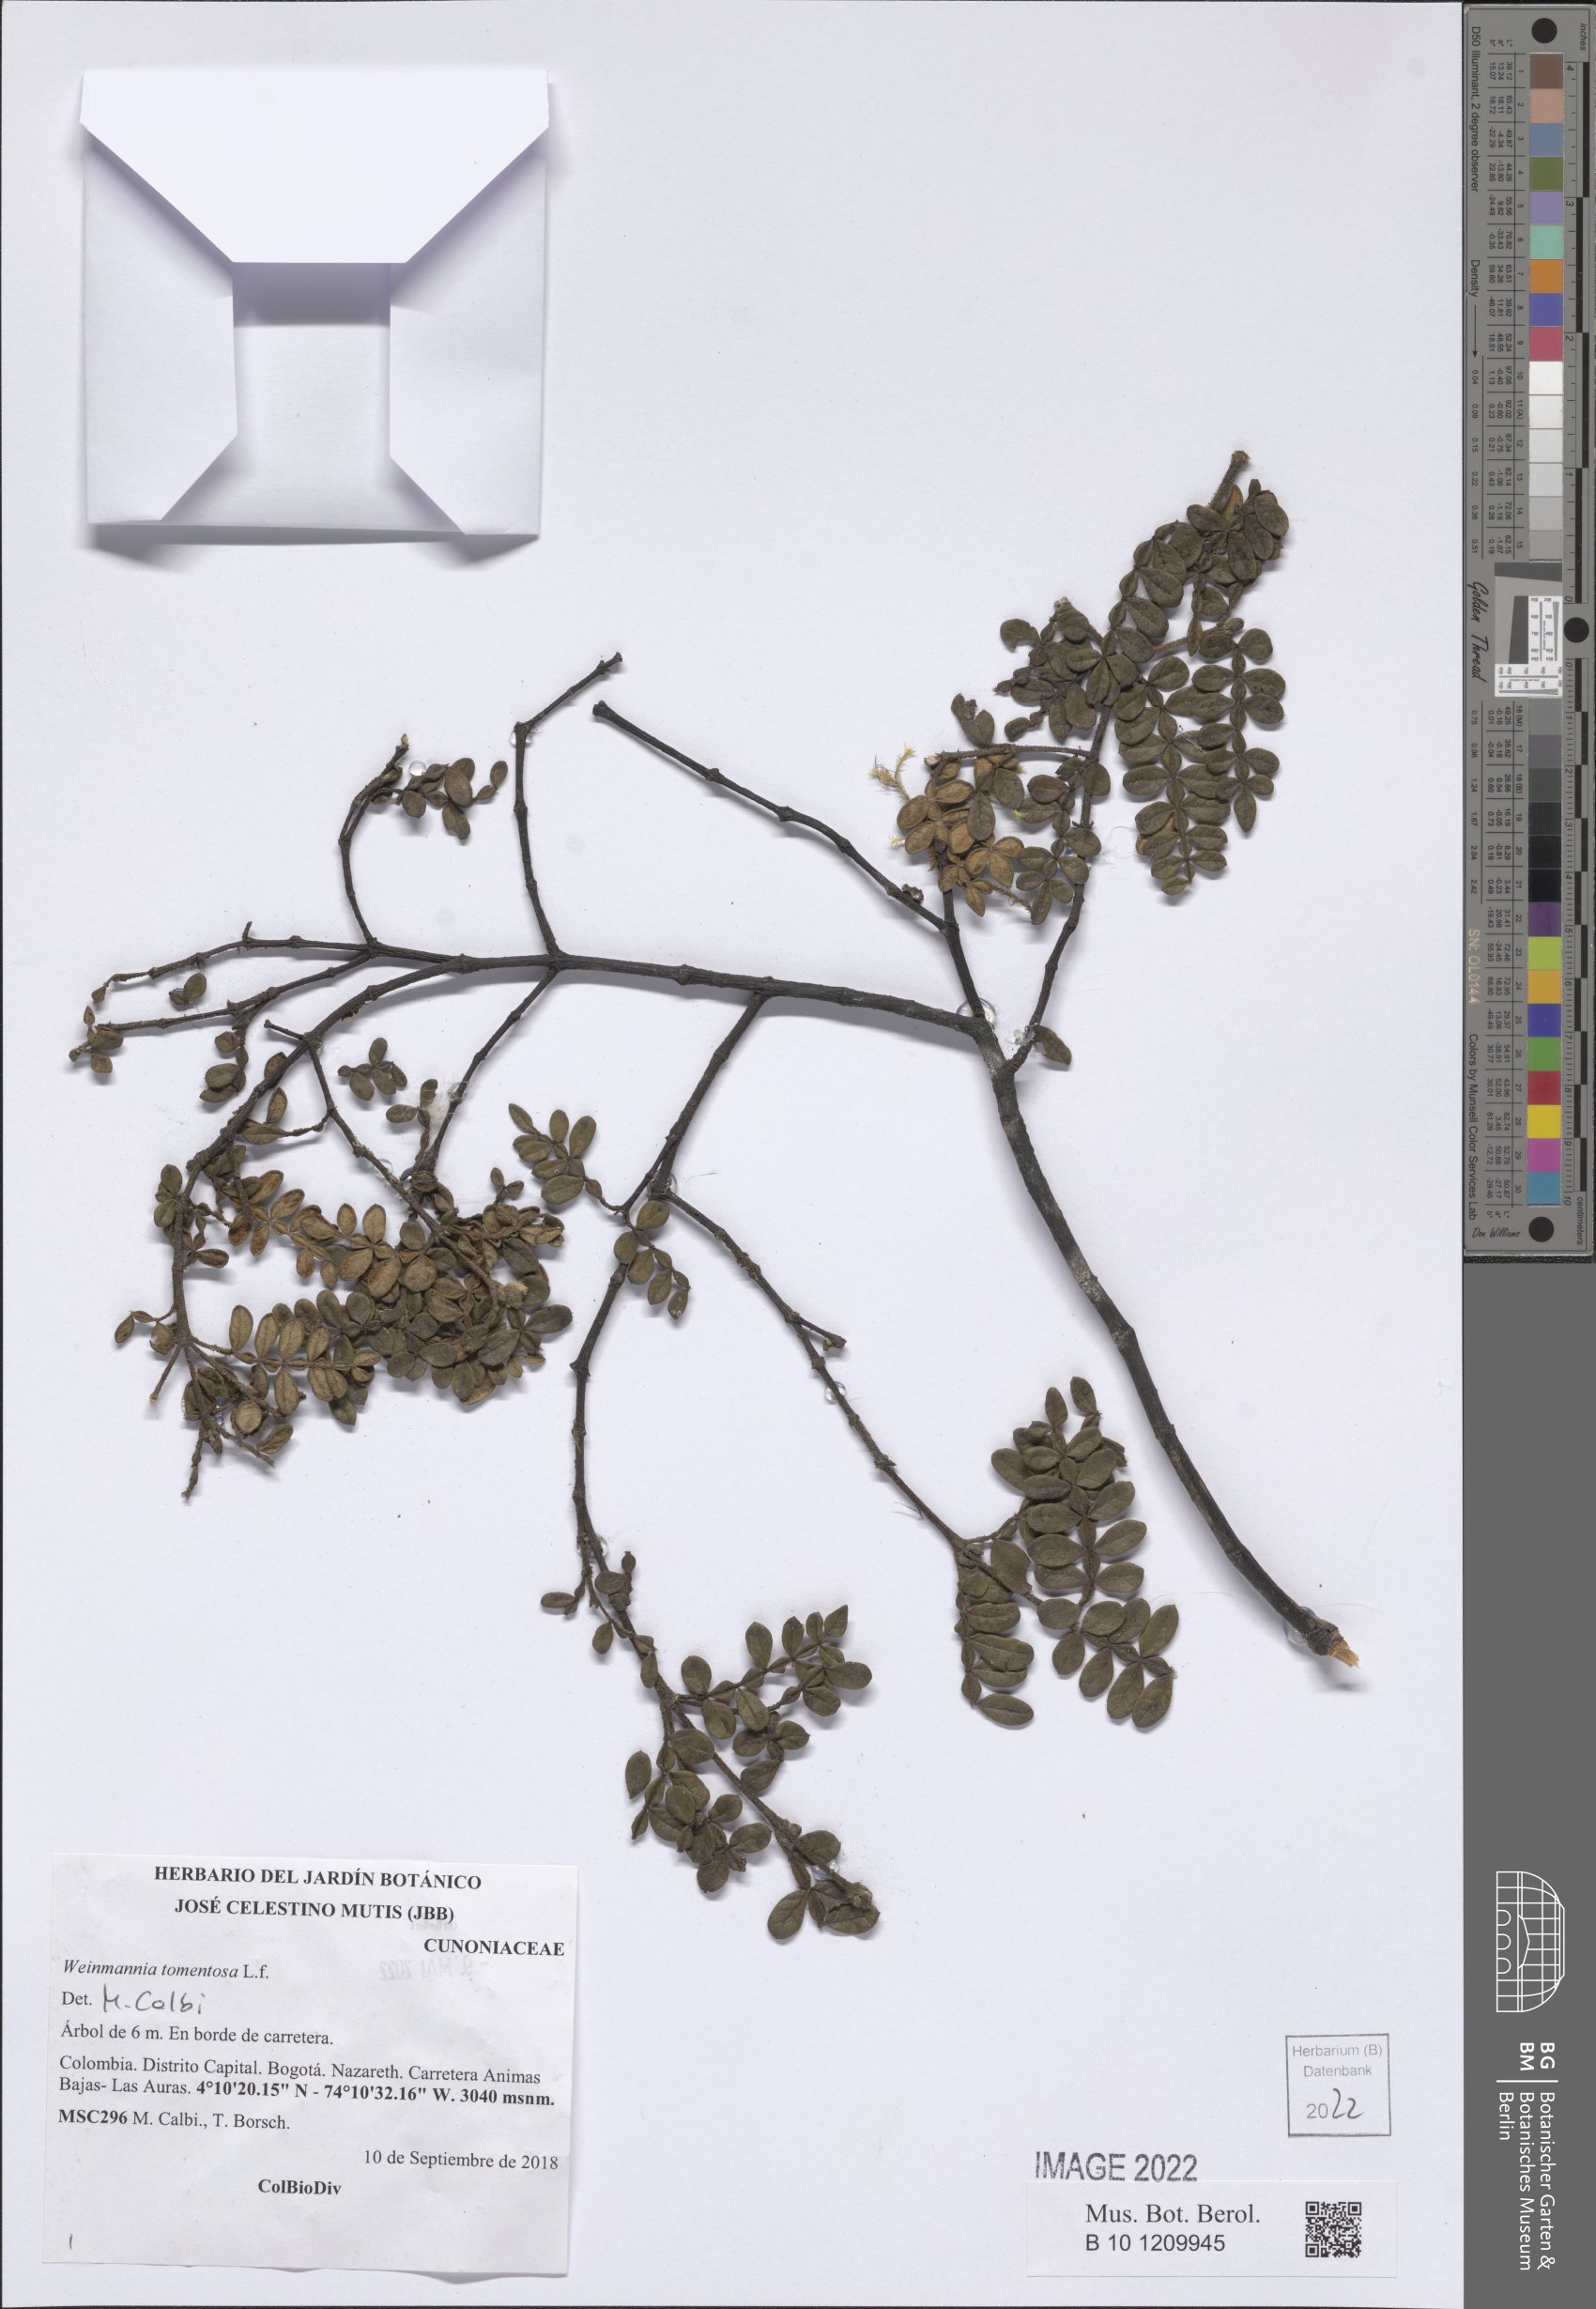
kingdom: Plantae
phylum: Tracheophyta
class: Magnoliopsida
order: Oxalidales
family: Cunoniaceae
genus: Weinmannia
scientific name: Weinmannia tomentosa
